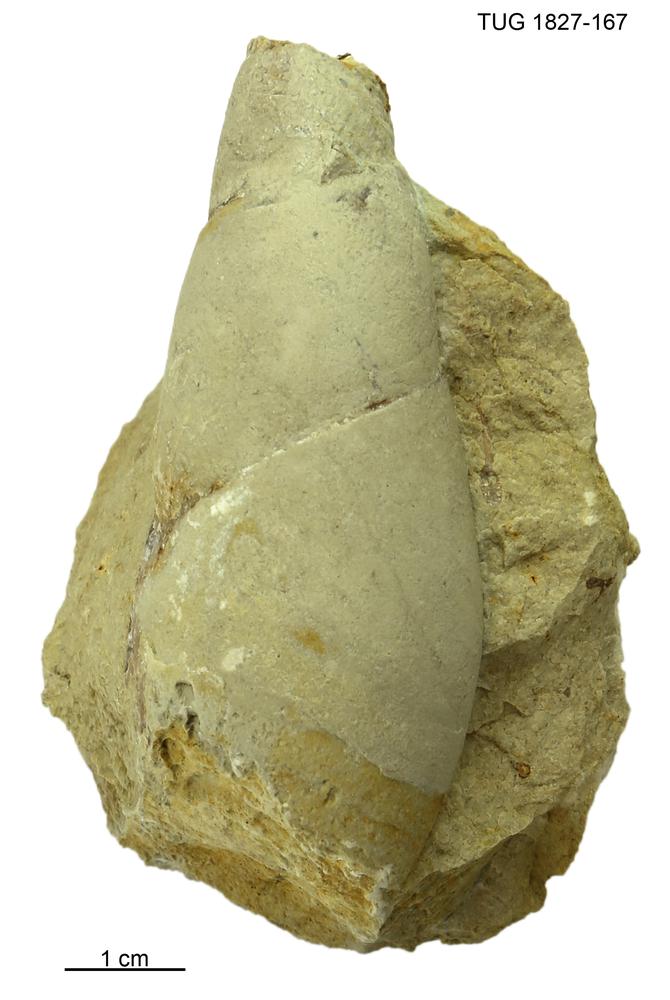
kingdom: Animalia
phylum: Mollusca
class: Gastropoda
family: Subulitidae
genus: Subulites
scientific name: Subulites
